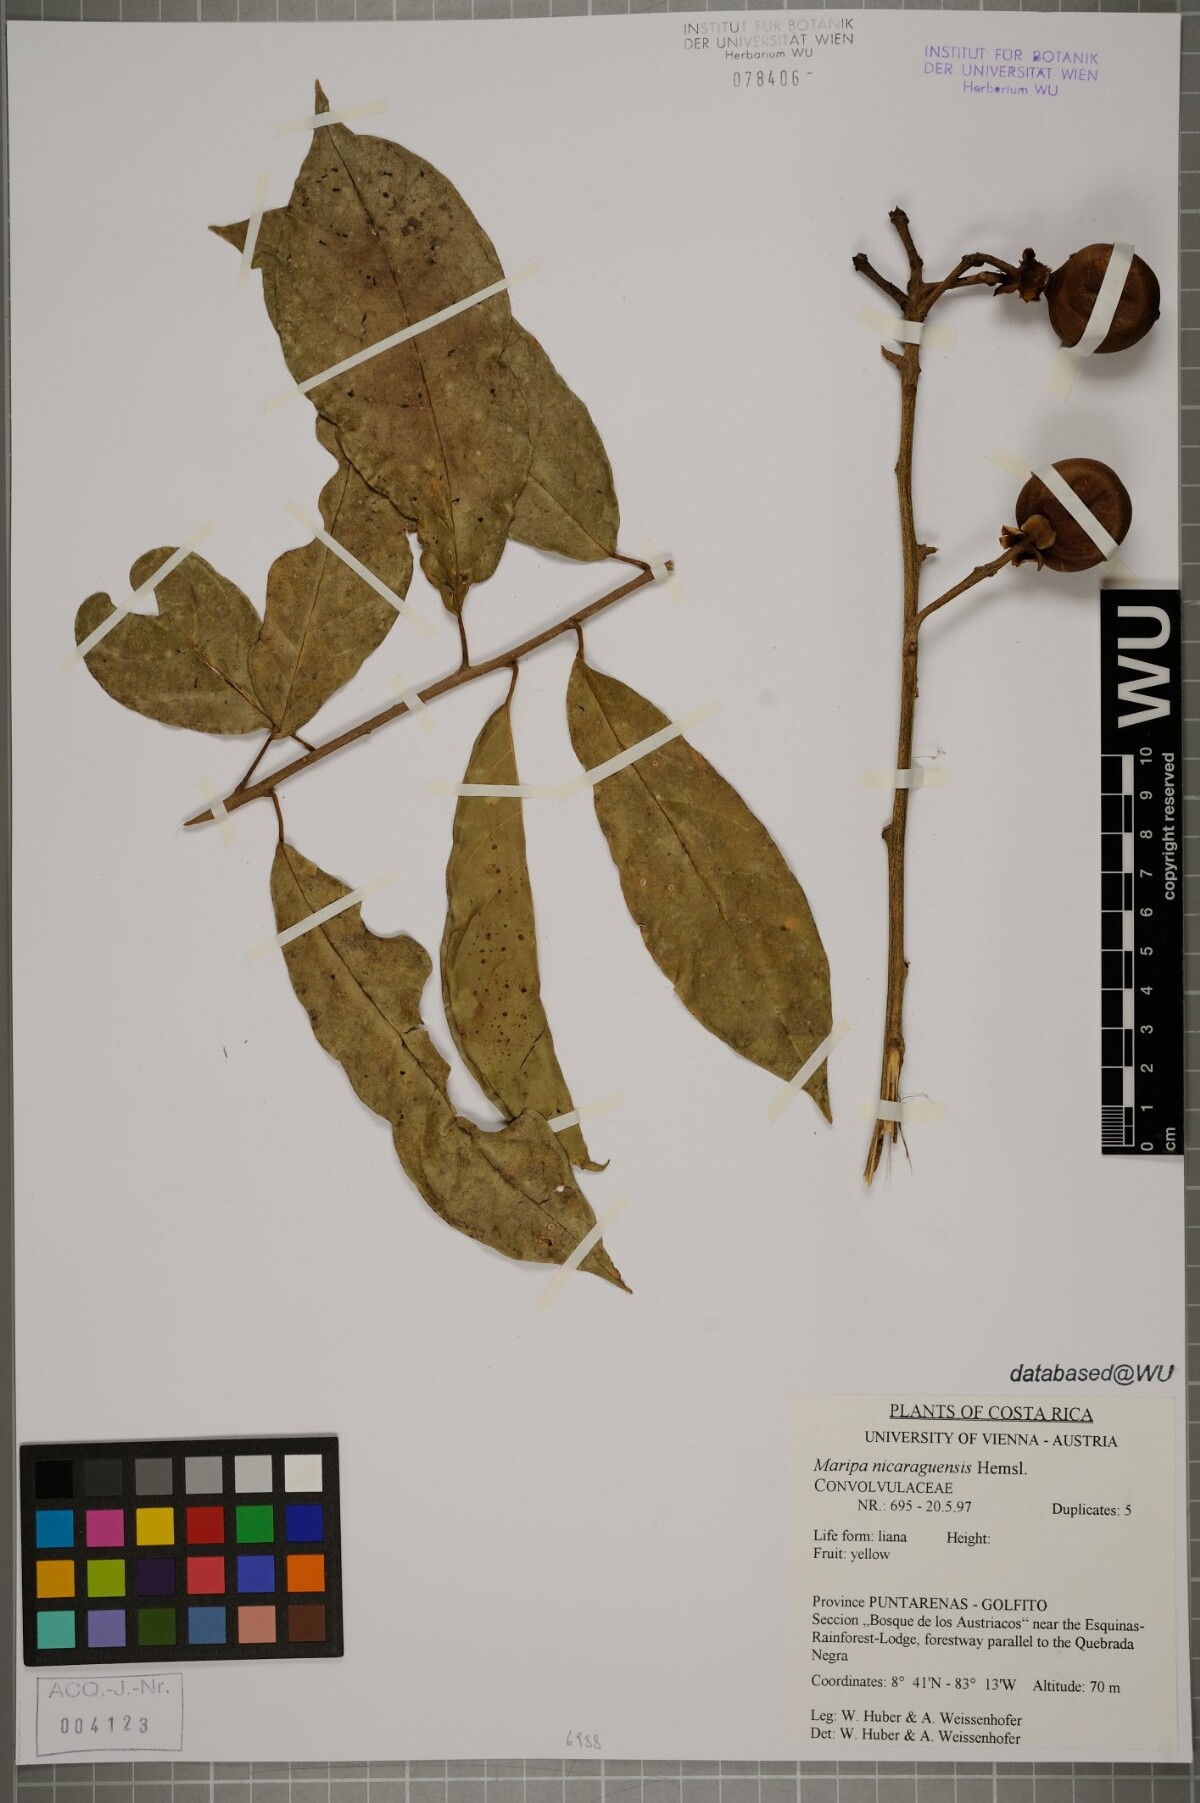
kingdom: Plantae
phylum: Tracheophyta
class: Magnoliopsida
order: Solanales
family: Convolvulaceae
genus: Maripa
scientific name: Maripa nicaraguensis
